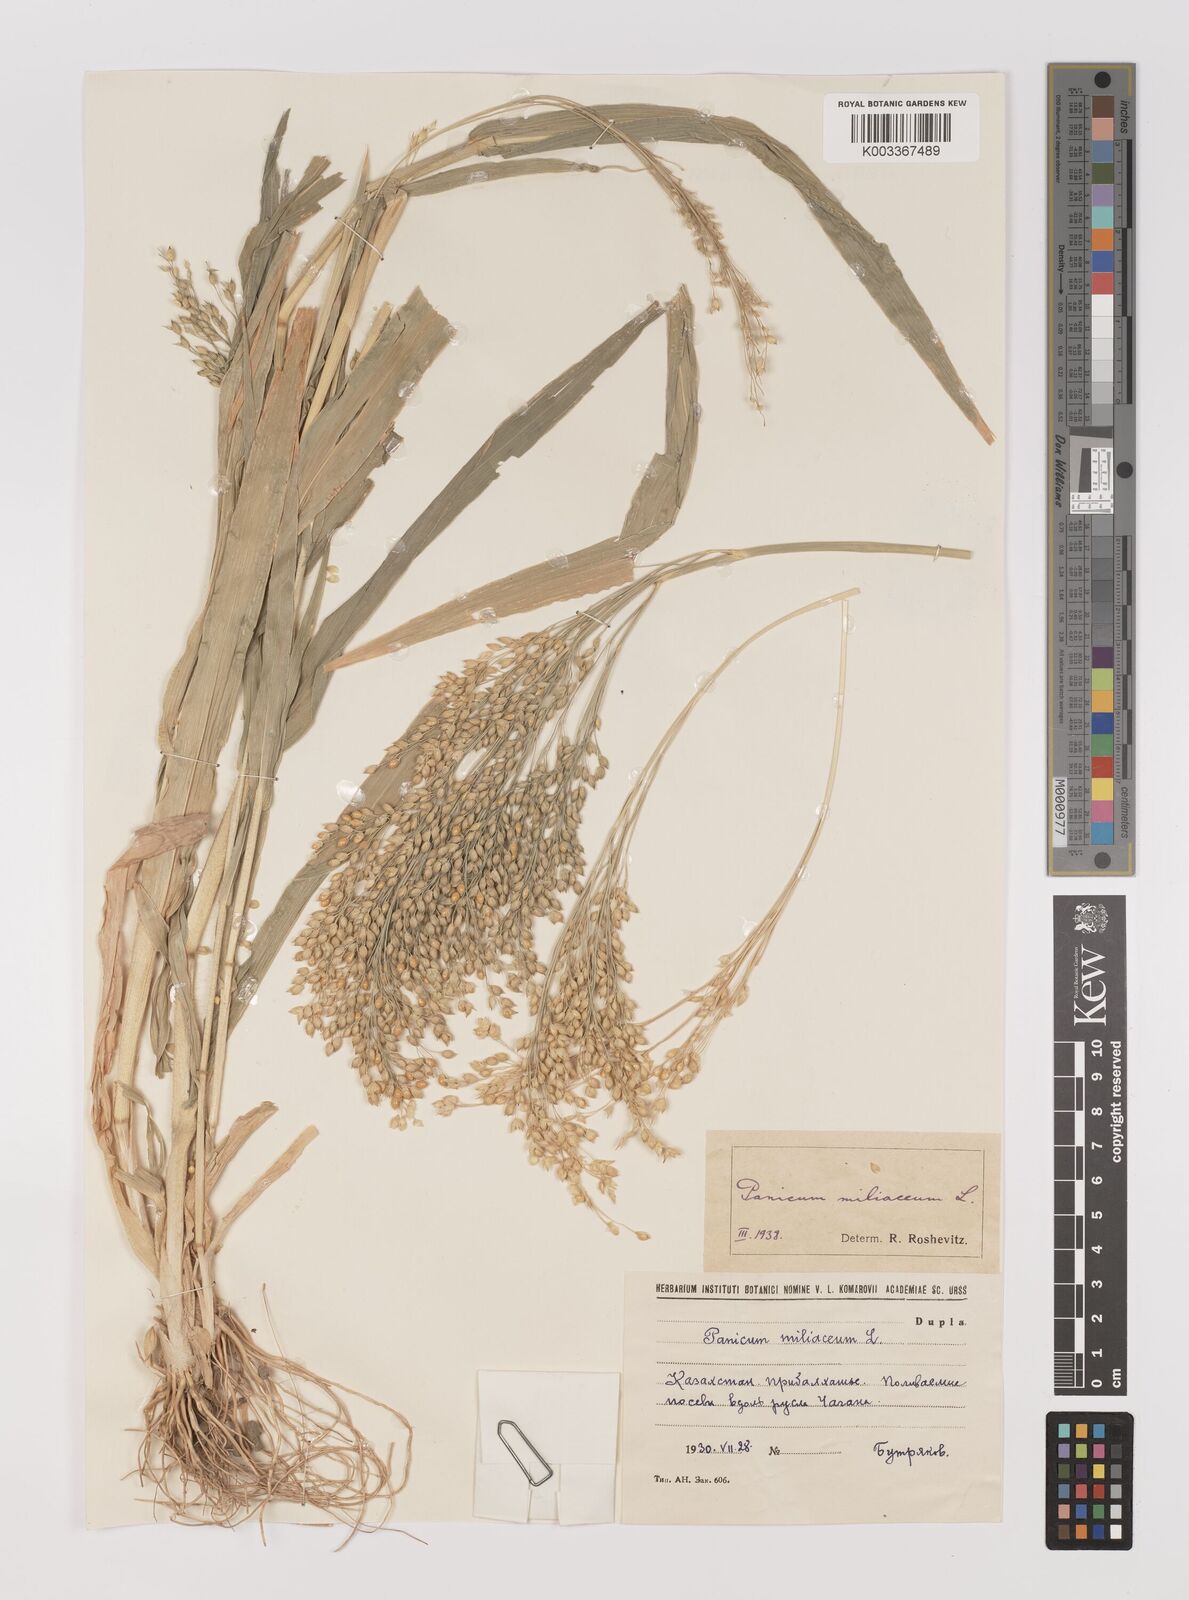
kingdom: Plantae
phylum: Tracheophyta
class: Liliopsida
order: Poales
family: Poaceae
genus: Panicum
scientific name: Panicum miliaceum
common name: Common millet
